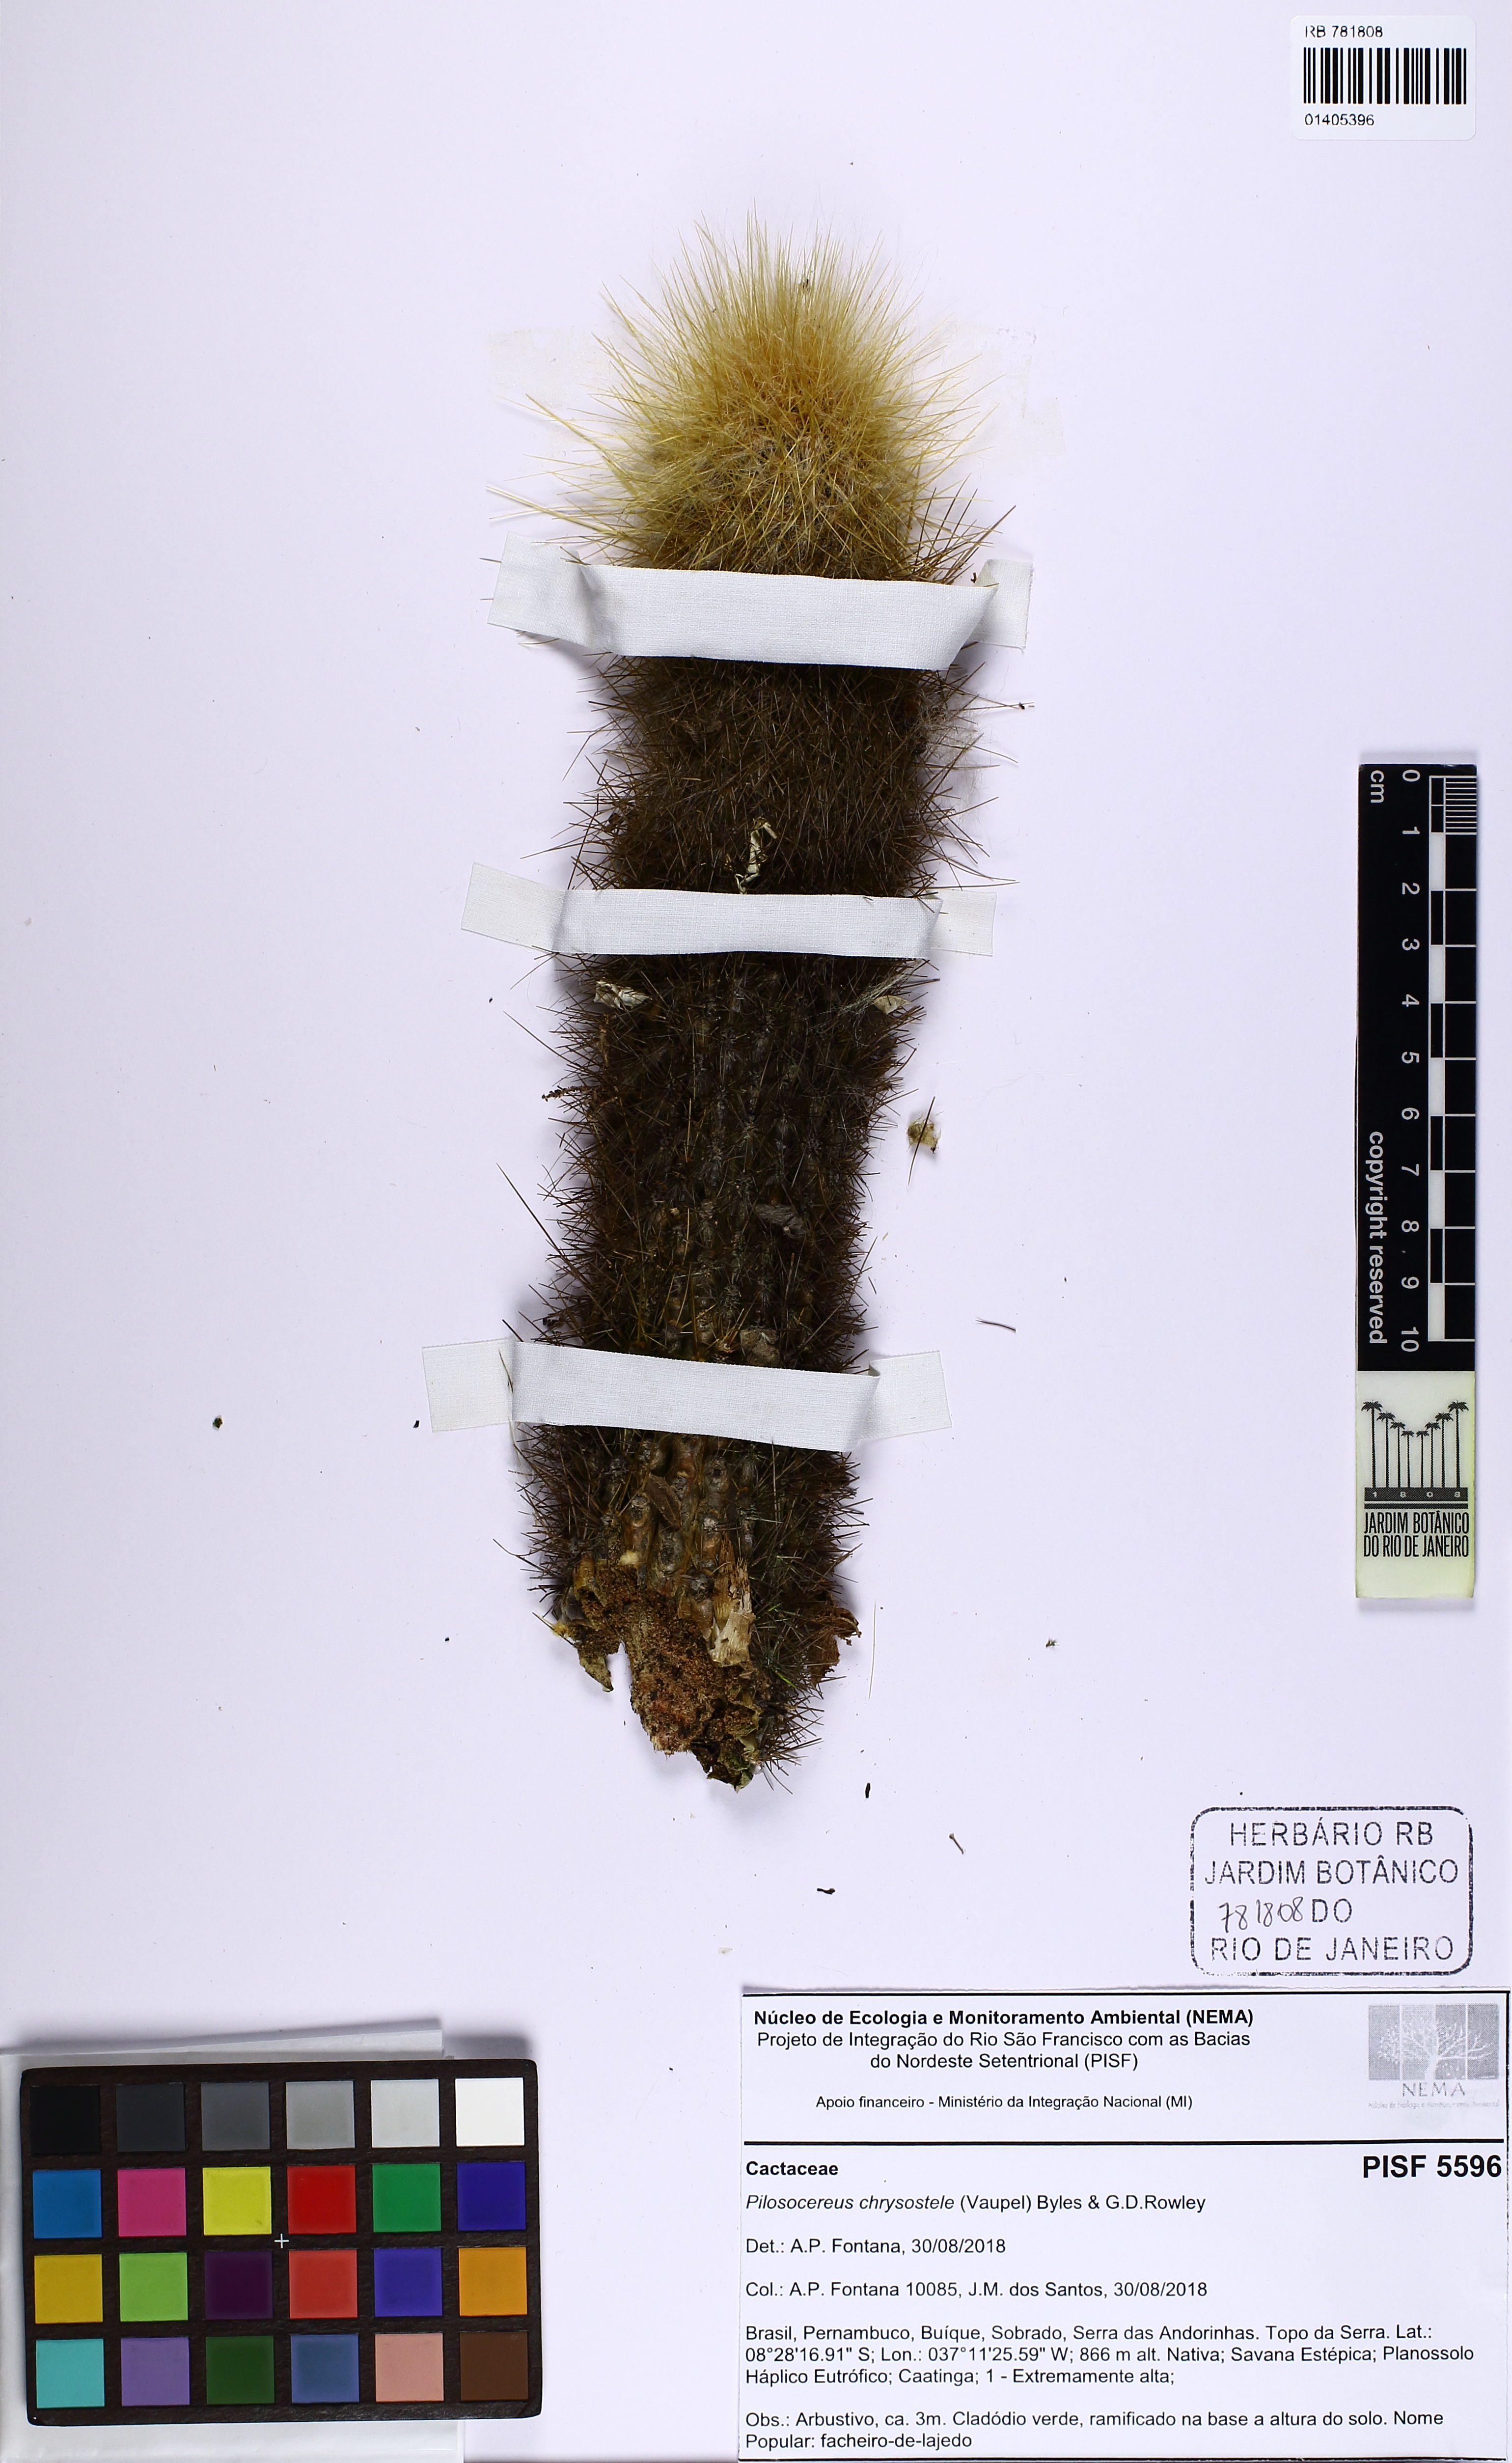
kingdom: Plantae
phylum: Tracheophyta
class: Magnoliopsida
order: Caryophyllales
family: Cactaceae
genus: Pilosocereus
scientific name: Pilosocereus chrysostele
